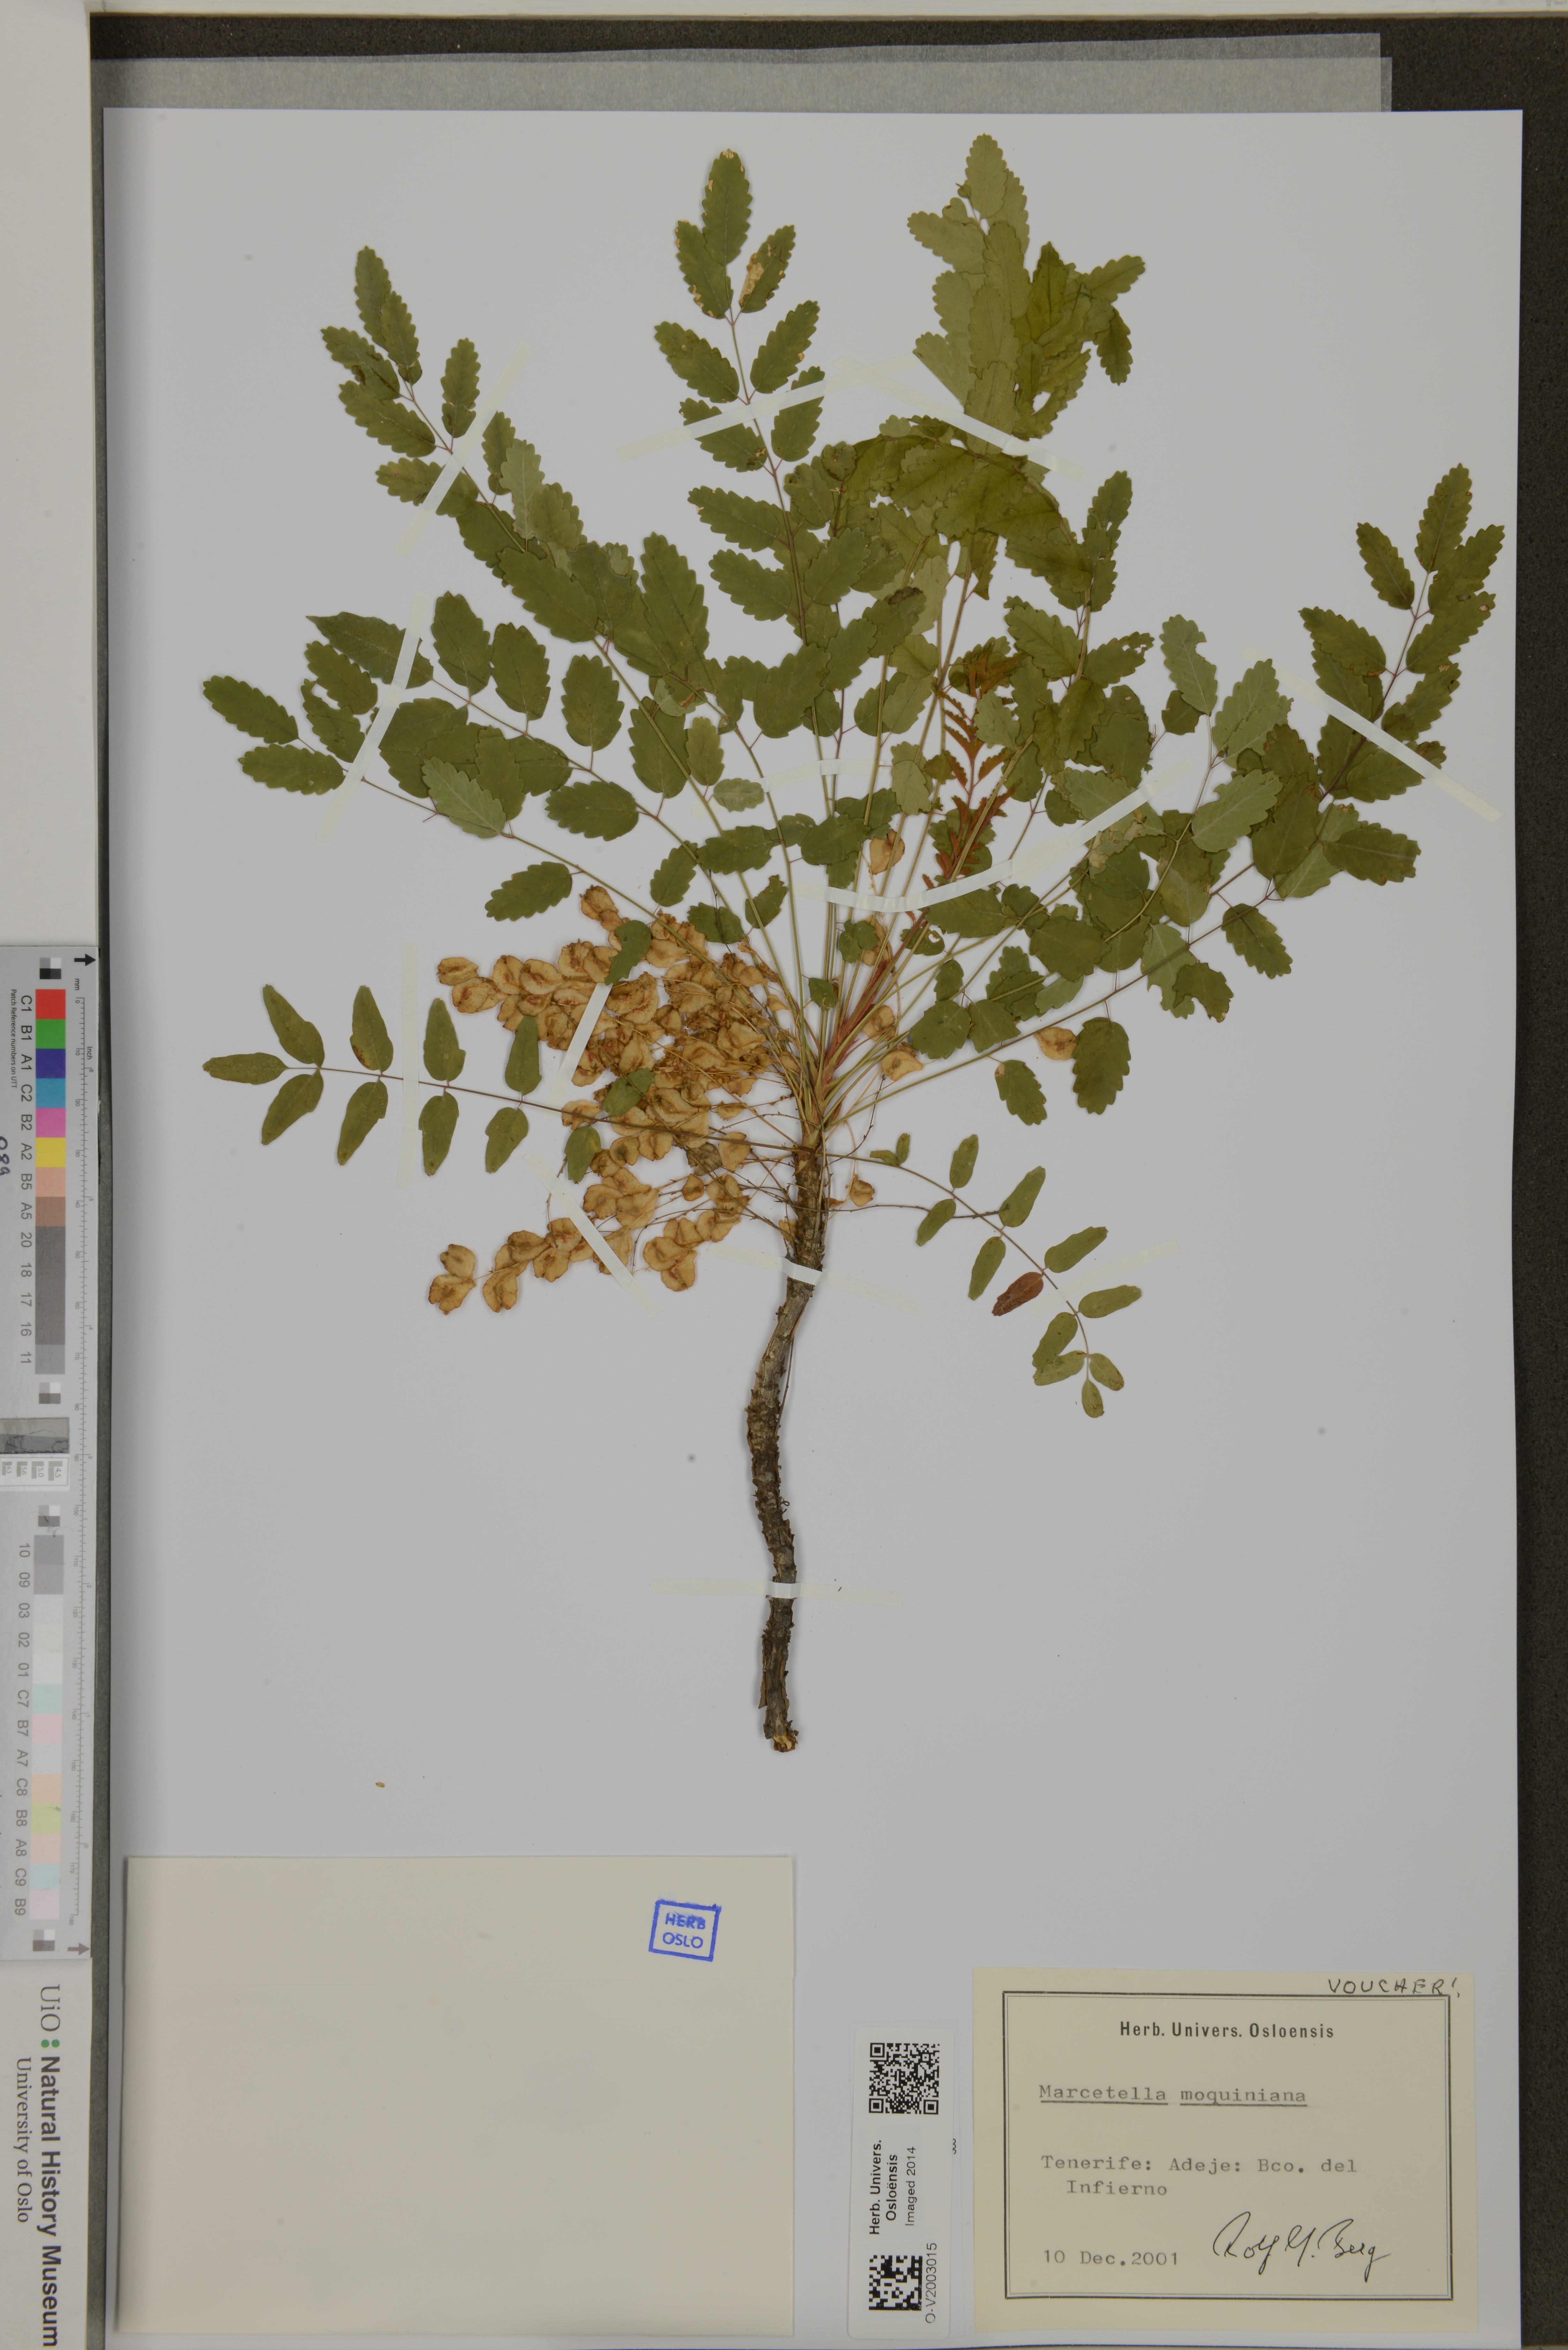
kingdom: Plantae
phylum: Tracheophyta
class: Magnoliopsida
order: Rosales
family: Rosaceae
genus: Marcetella
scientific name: Marcetella moquiniana
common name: Burnet tree
